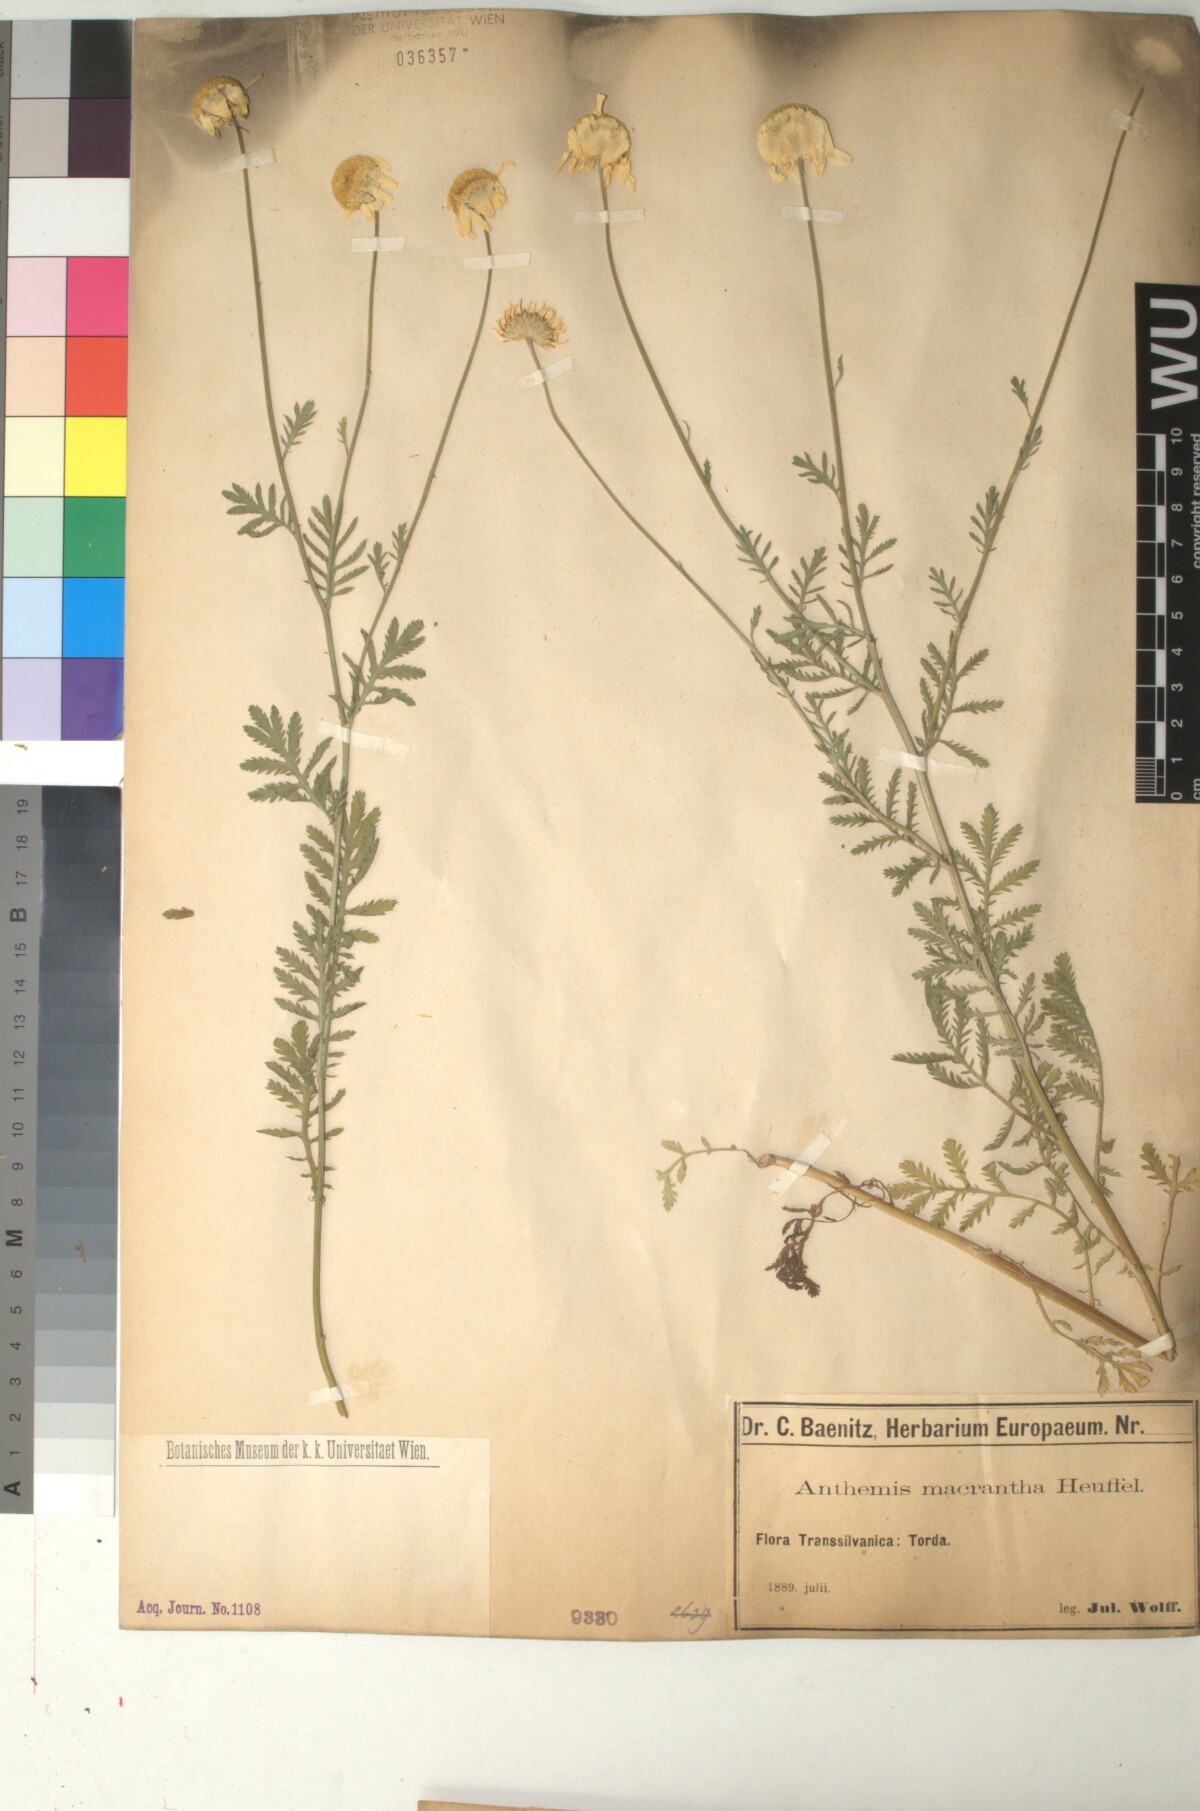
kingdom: Plantae
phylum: Tracheophyta
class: Magnoliopsida
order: Asterales
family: Asteraceae
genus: Cota
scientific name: Cota macrantha
